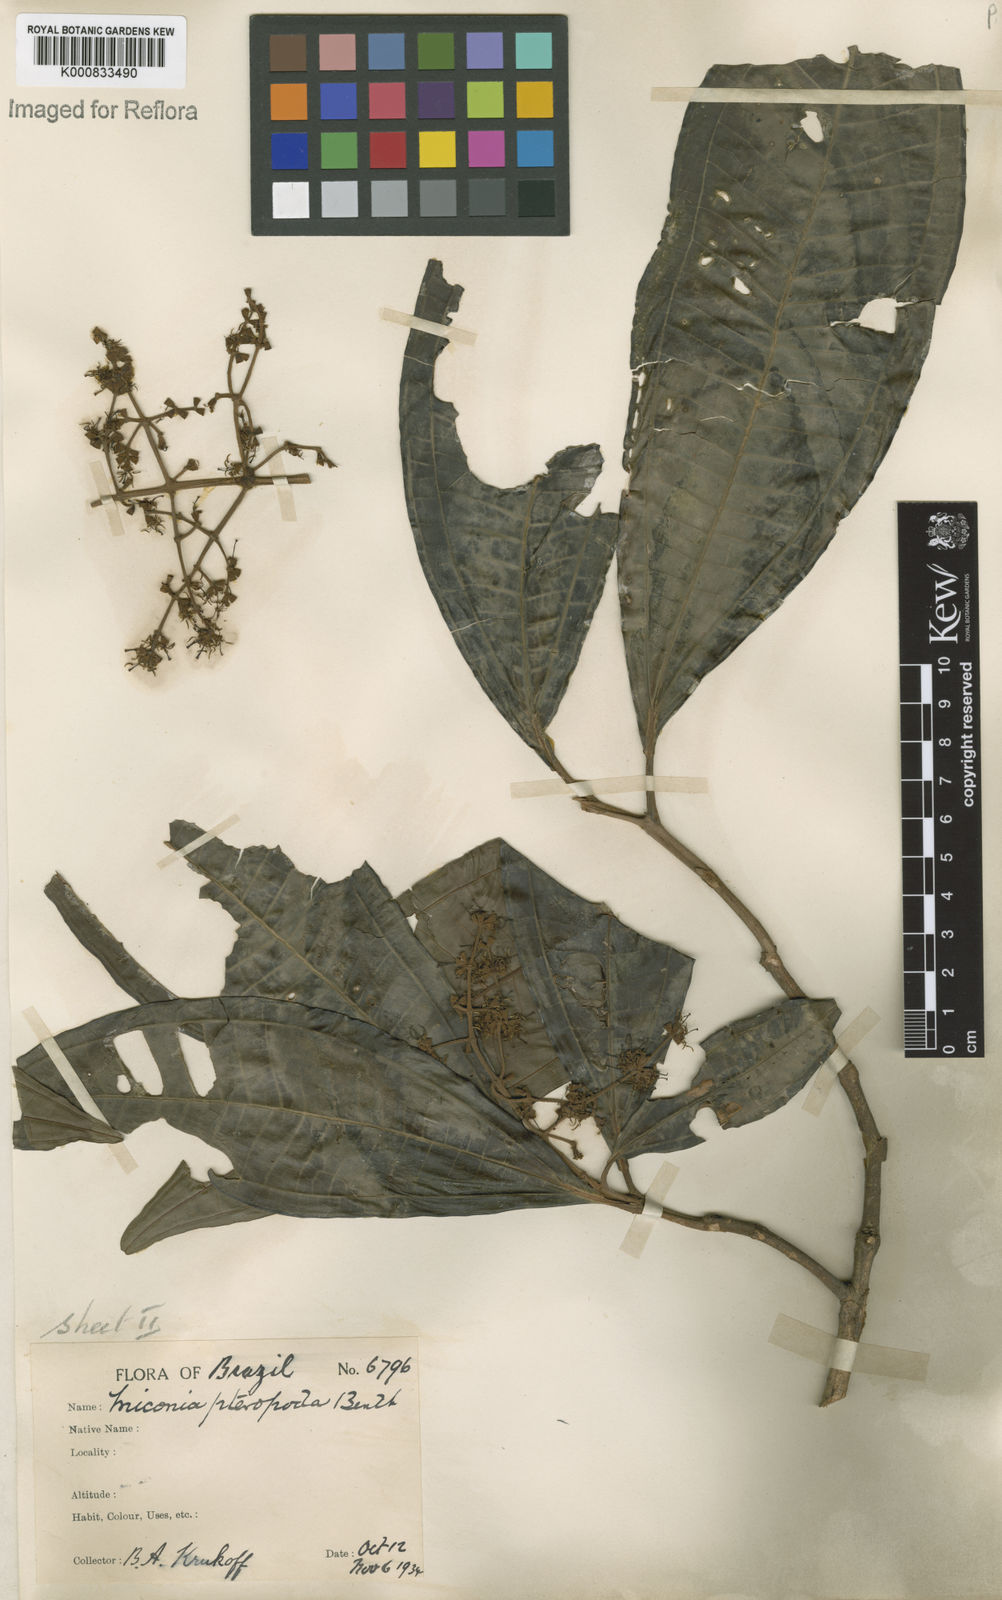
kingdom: Plantae
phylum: Tracheophyta
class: Magnoliopsida
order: Myrtales
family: Melastomataceae
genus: Miconia
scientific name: Miconia umbrosa
